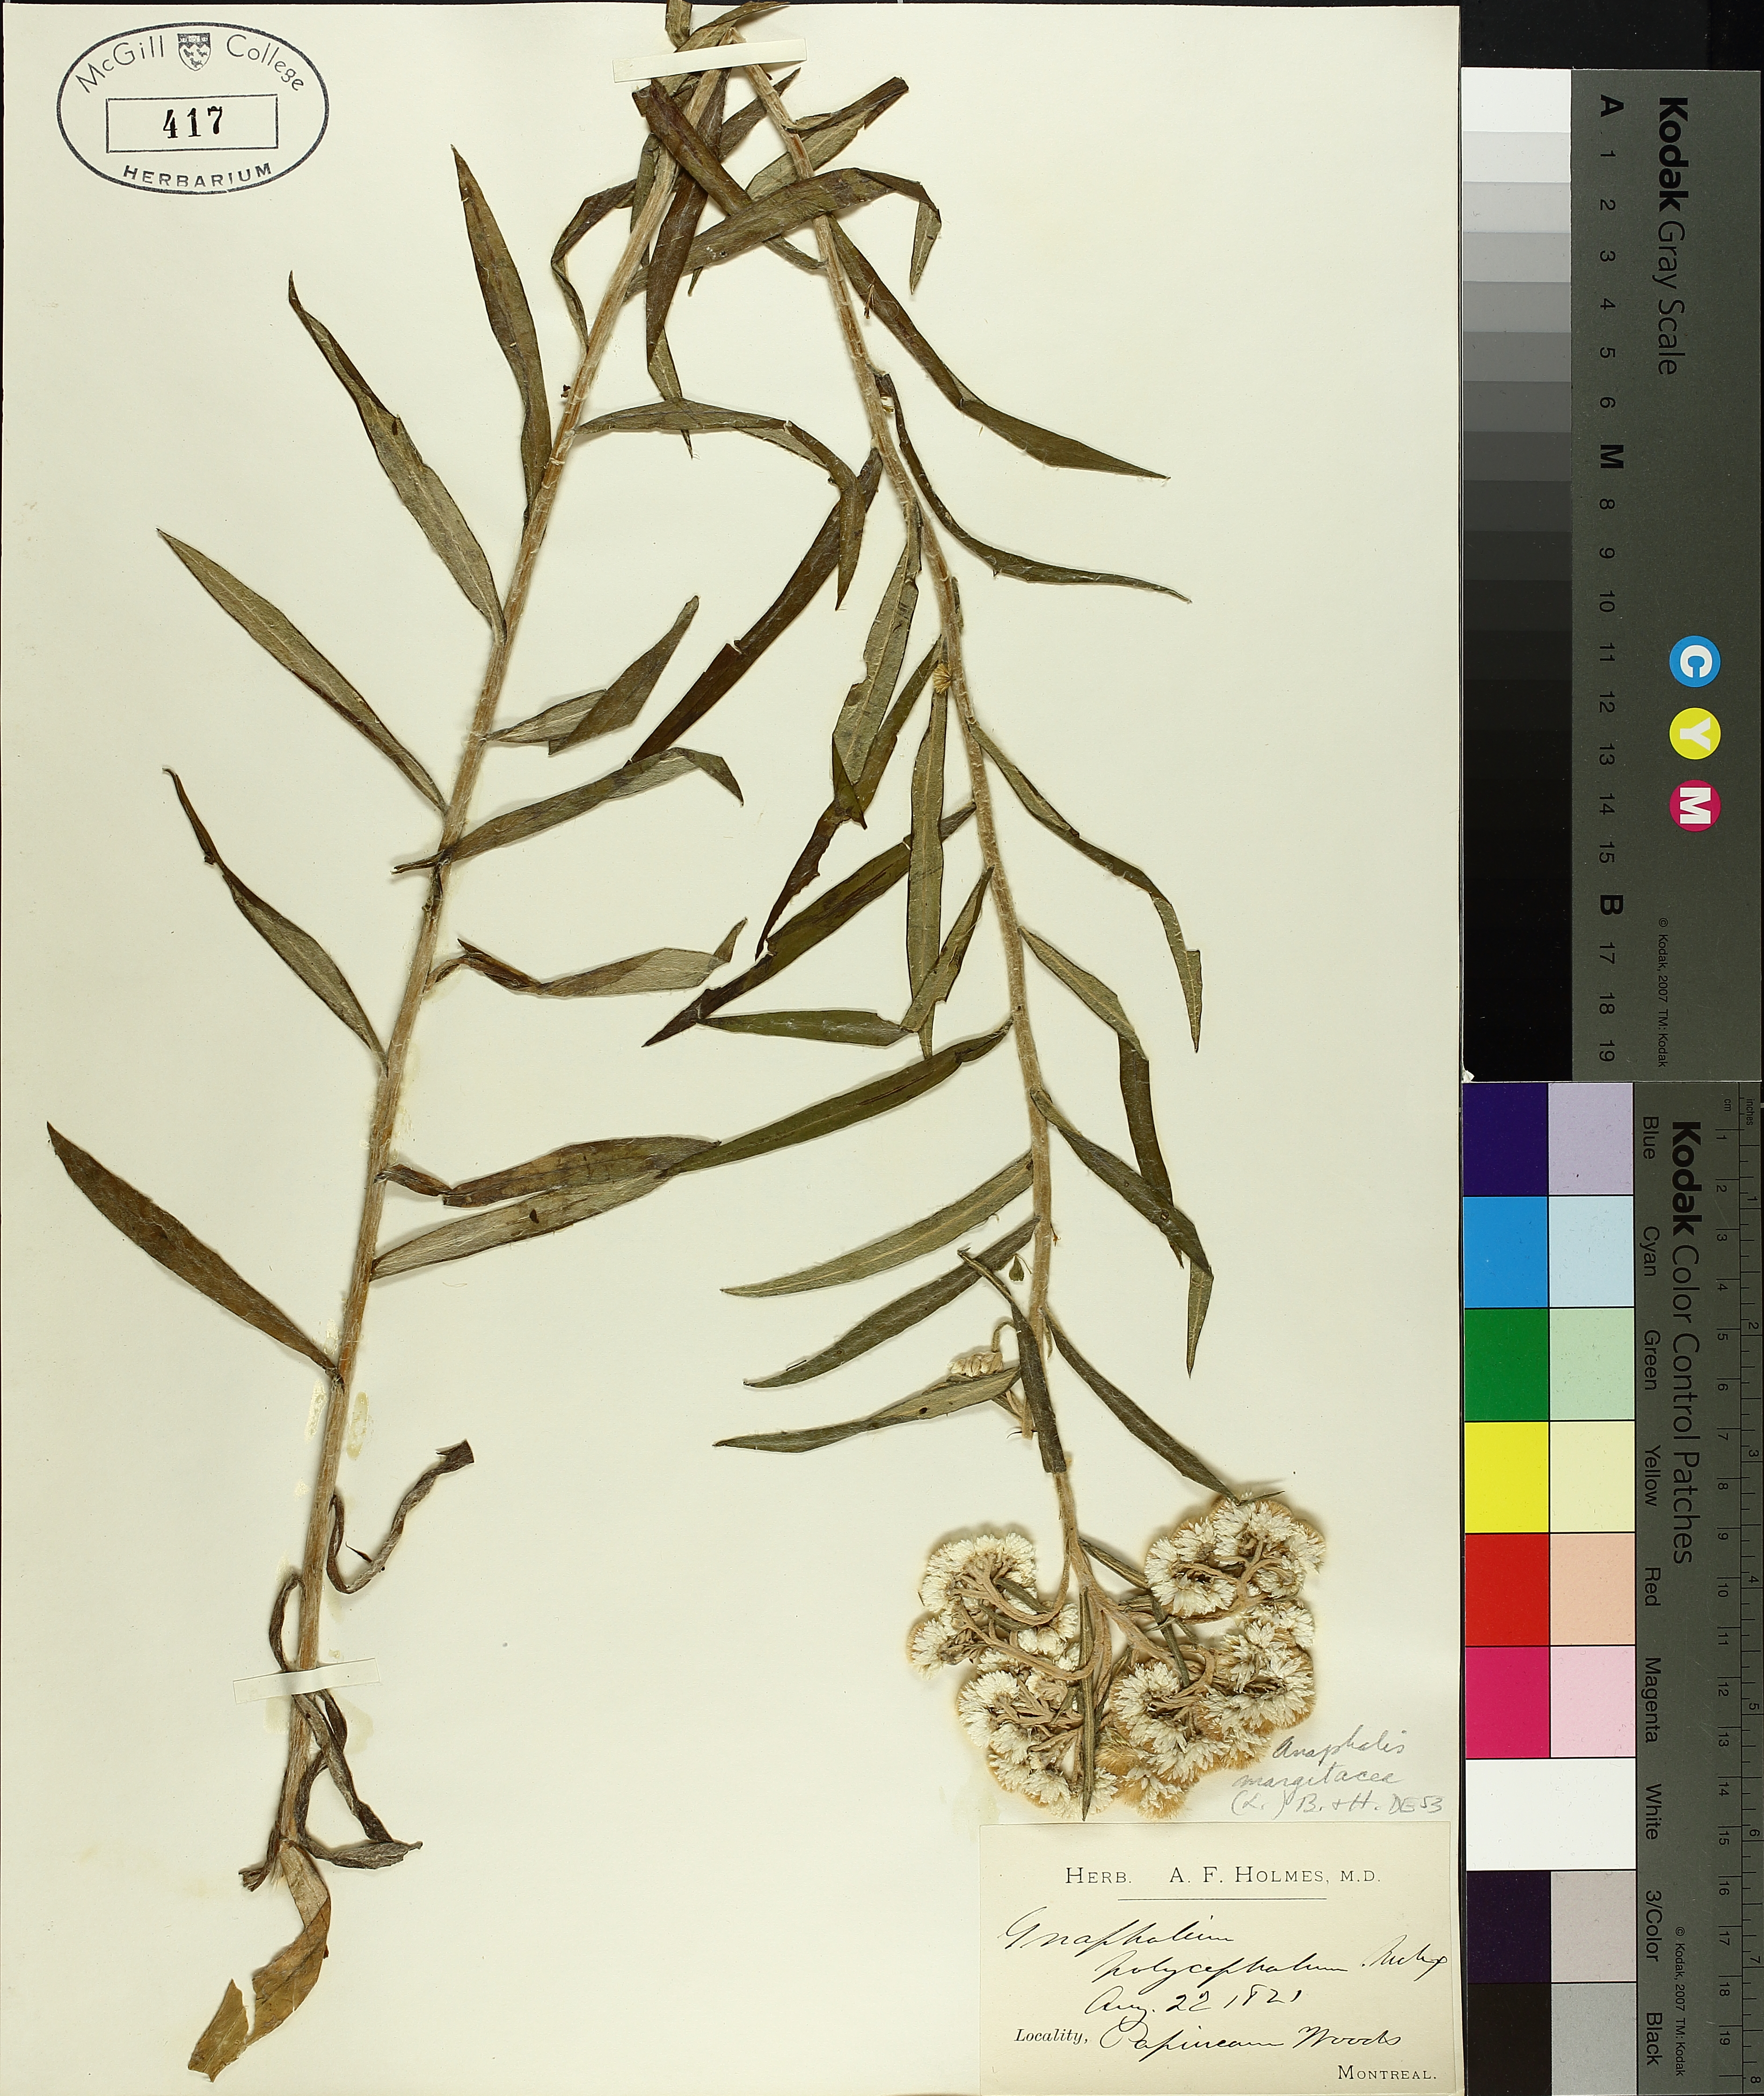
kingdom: Plantae
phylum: Tracheophyta
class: Magnoliopsida
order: Asterales
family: Asteraceae
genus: Antennaria
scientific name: Antennaria plantaginifolia
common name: Plantain-leaved pussytoes
